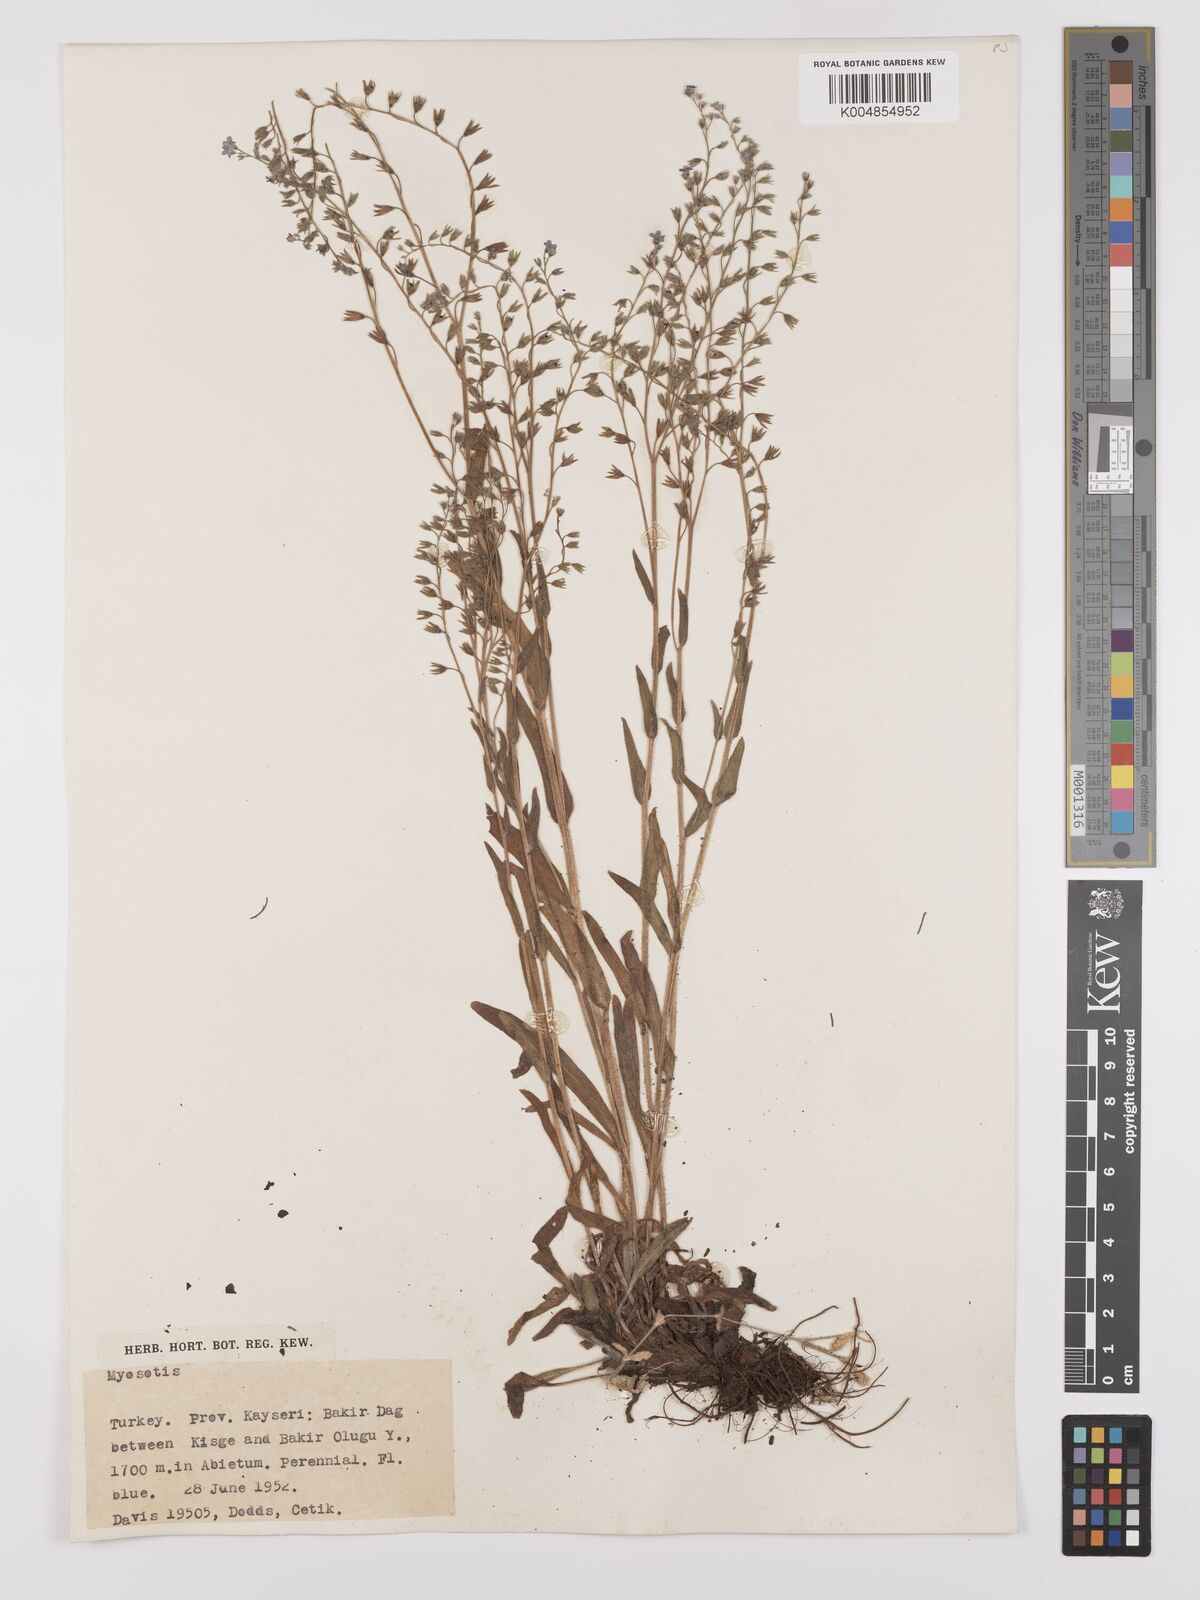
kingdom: Plantae
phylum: Tracheophyta
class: Magnoliopsida
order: Boraginales
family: Boraginaceae
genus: Myosotis
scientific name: Myosotis
